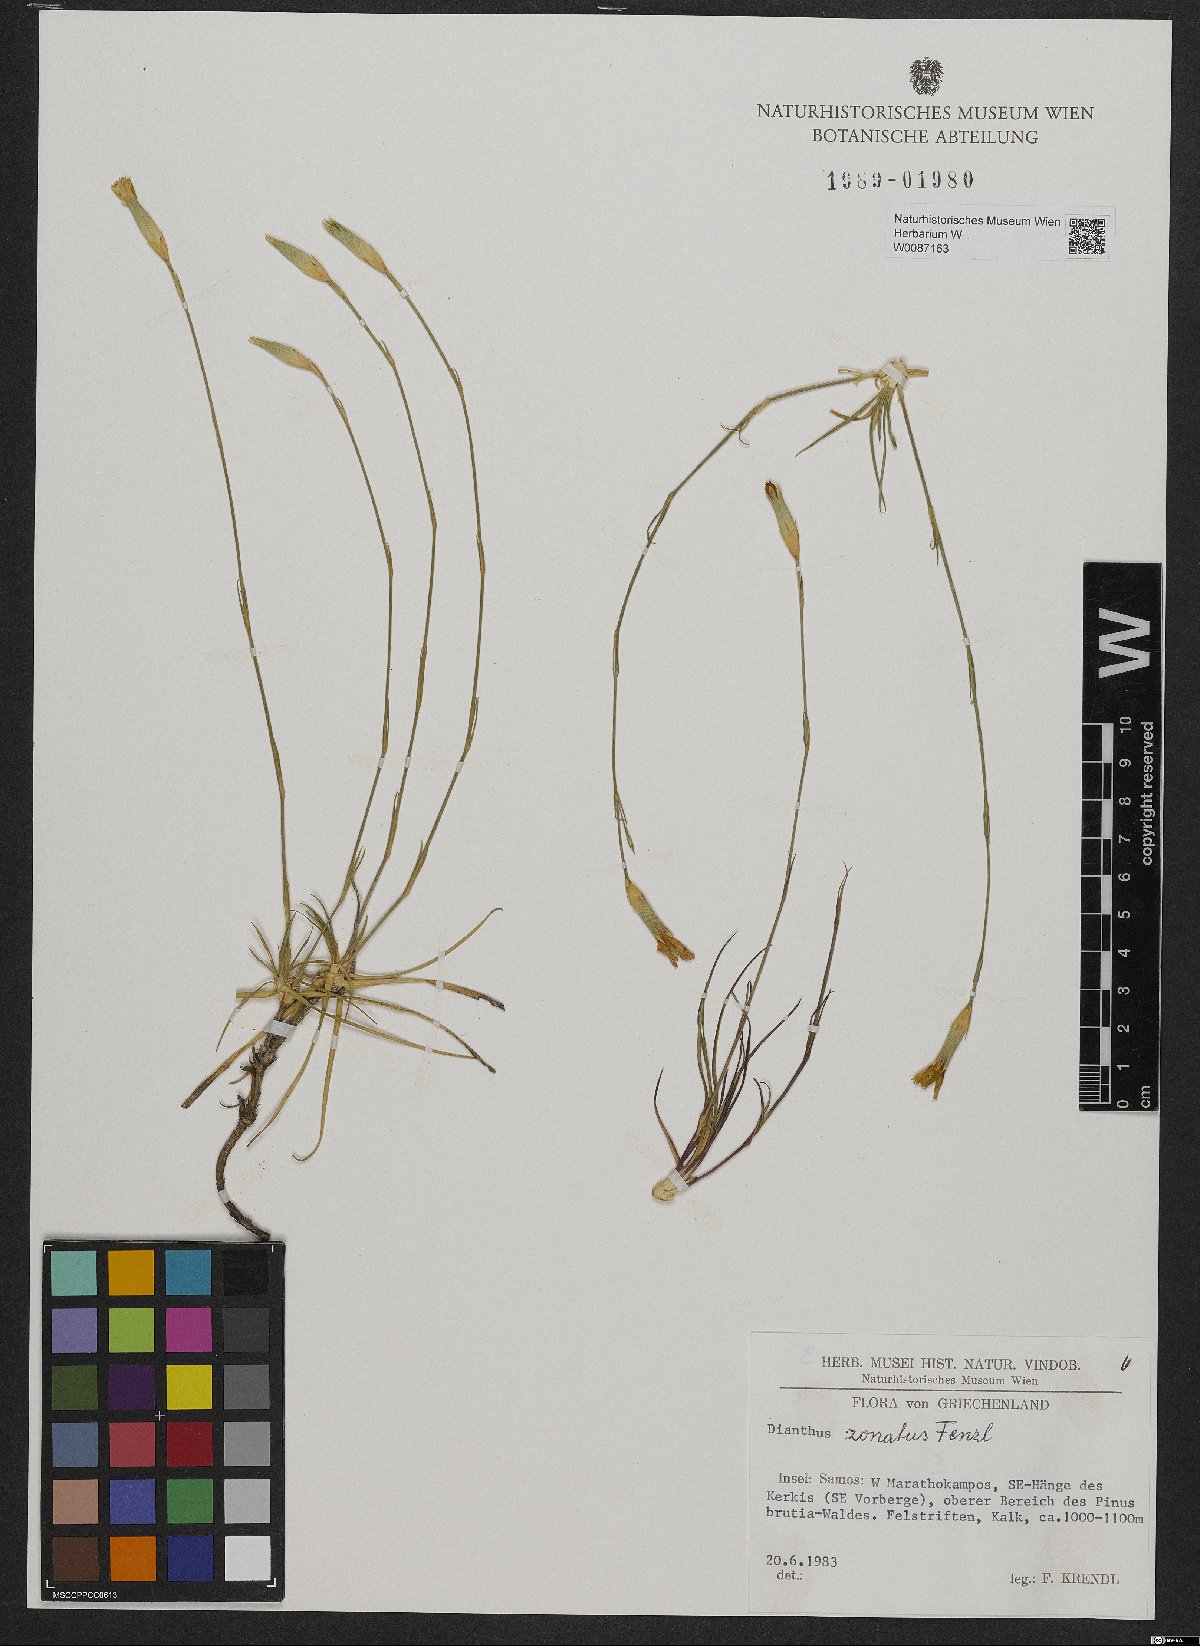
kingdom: Plantae
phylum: Tracheophyta
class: Magnoliopsida
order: Caryophyllales
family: Caryophyllaceae
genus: Dianthus
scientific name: Dianthus zonatus
